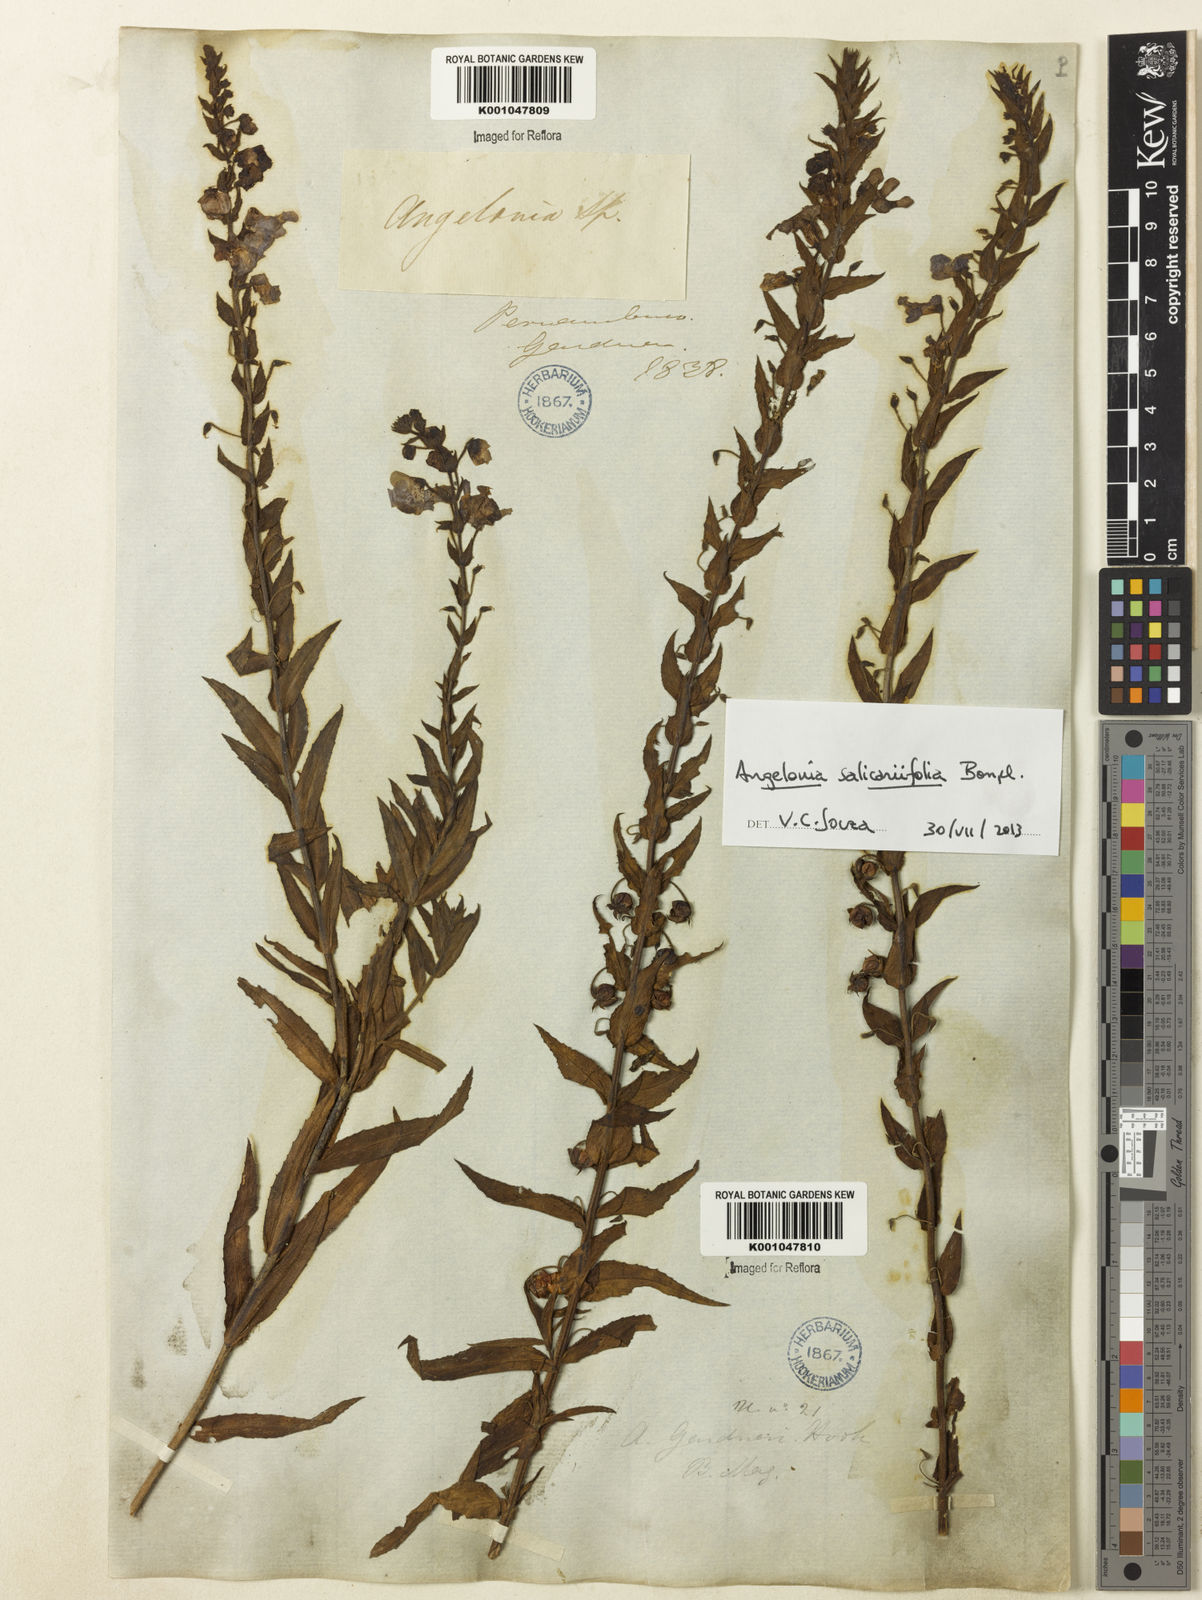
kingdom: Plantae
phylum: Tracheophyta
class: Magnoliopsida
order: Lamiales
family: Plantaginaceae
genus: Angelonia
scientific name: Angelonia salicariifolia
